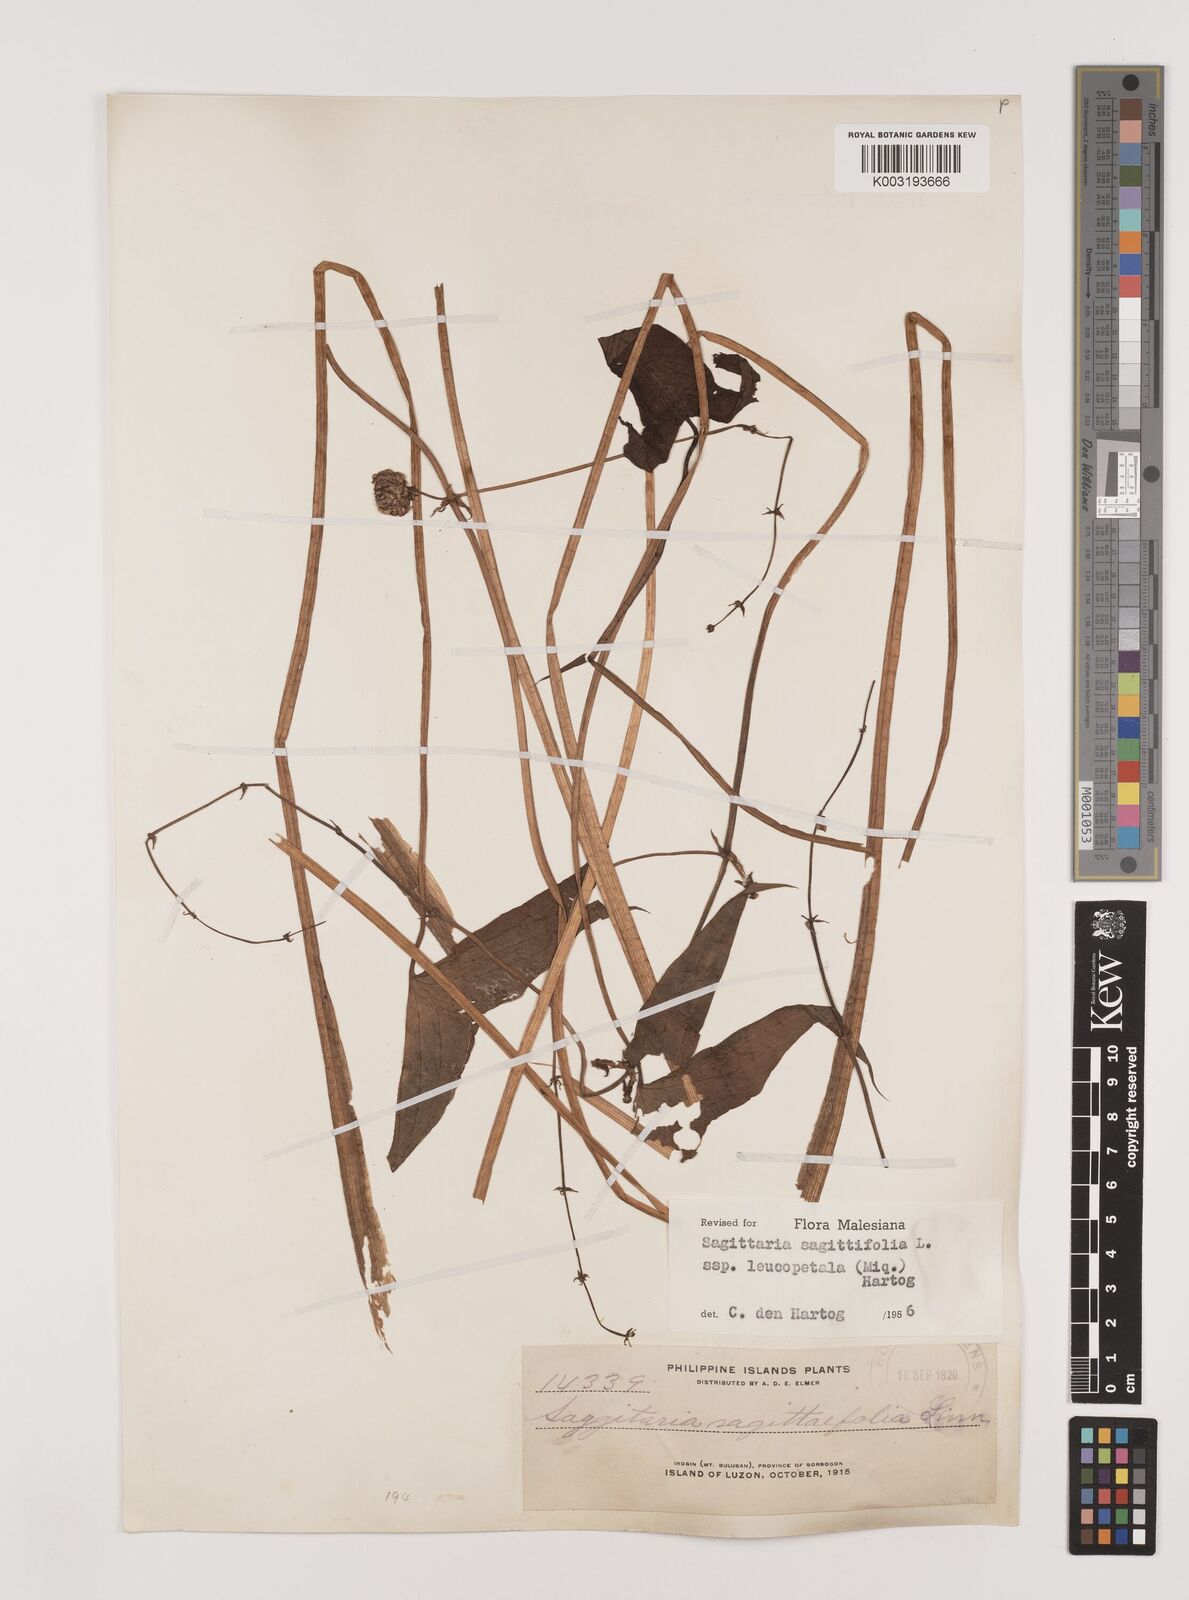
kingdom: Plantae
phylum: Tracheophyta
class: Liliopsida
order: Alismatales
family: Alismataceae
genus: Sagittaria
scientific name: Sagittaria sagittifolia
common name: Arrowhead
